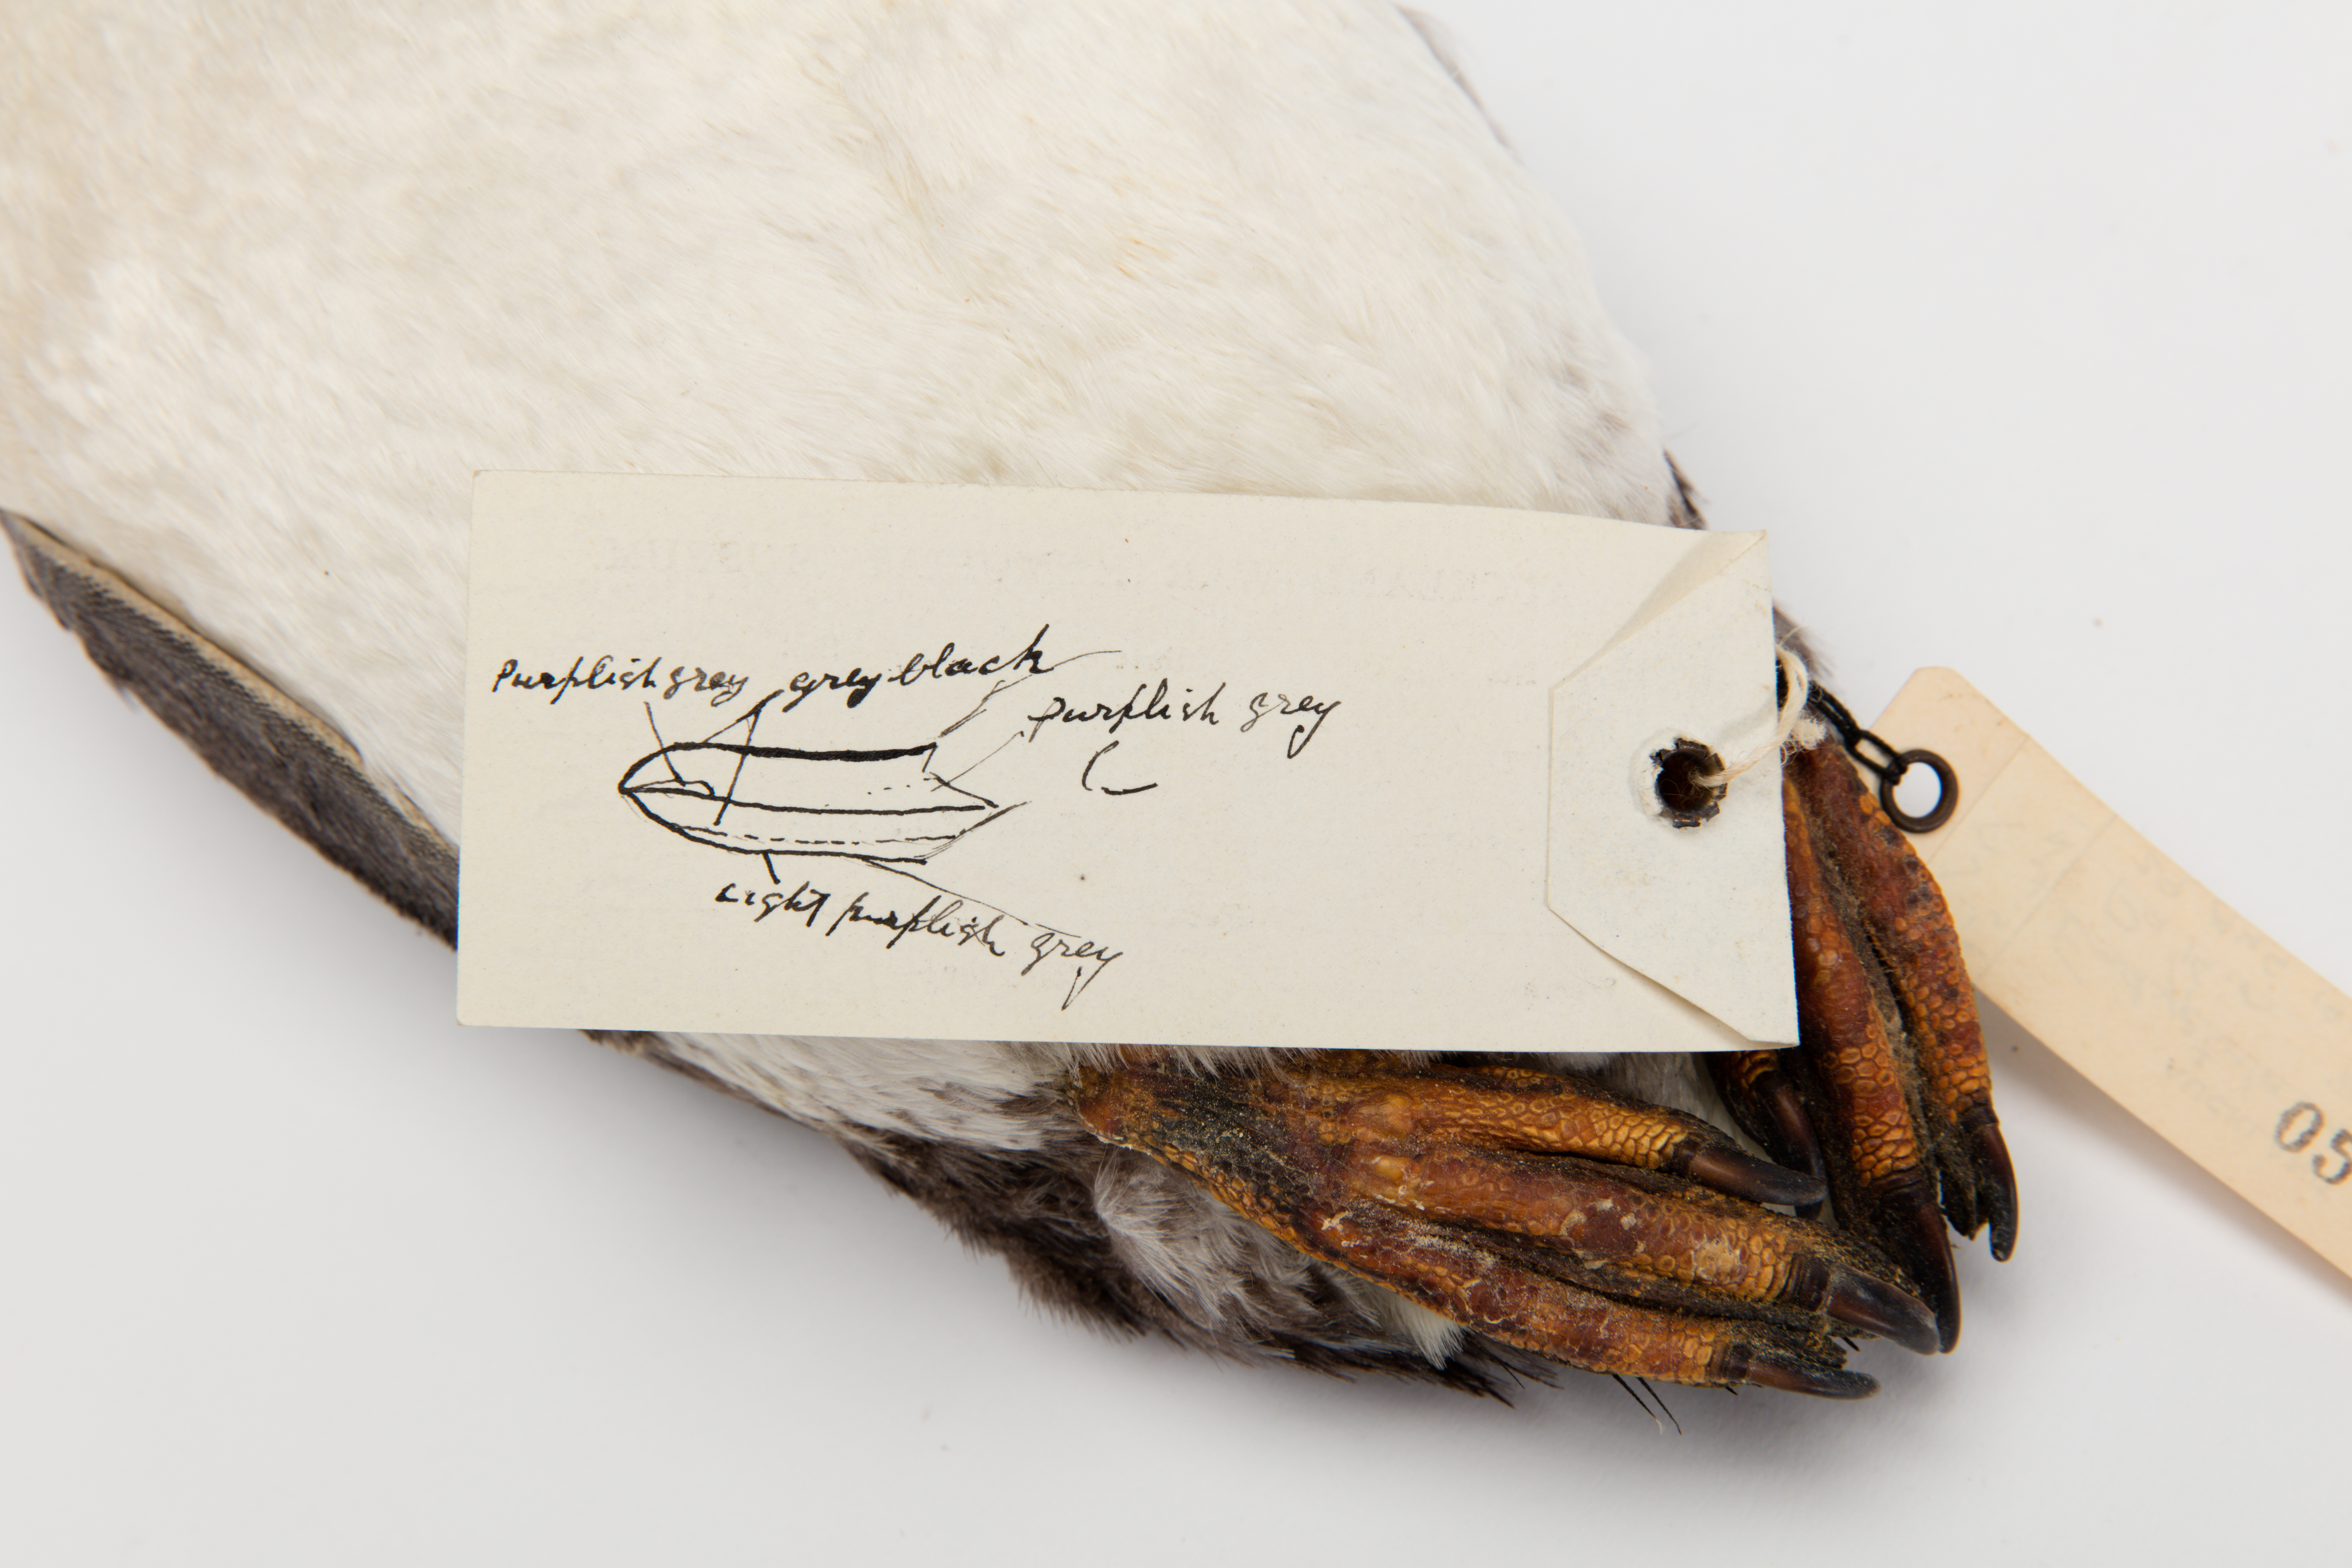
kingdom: Animalia
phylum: Chordata
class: Aves
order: Sphenisciformes
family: Spheniscidae
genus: Eudyptula
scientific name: Eudyptula minor
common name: Little penguin
